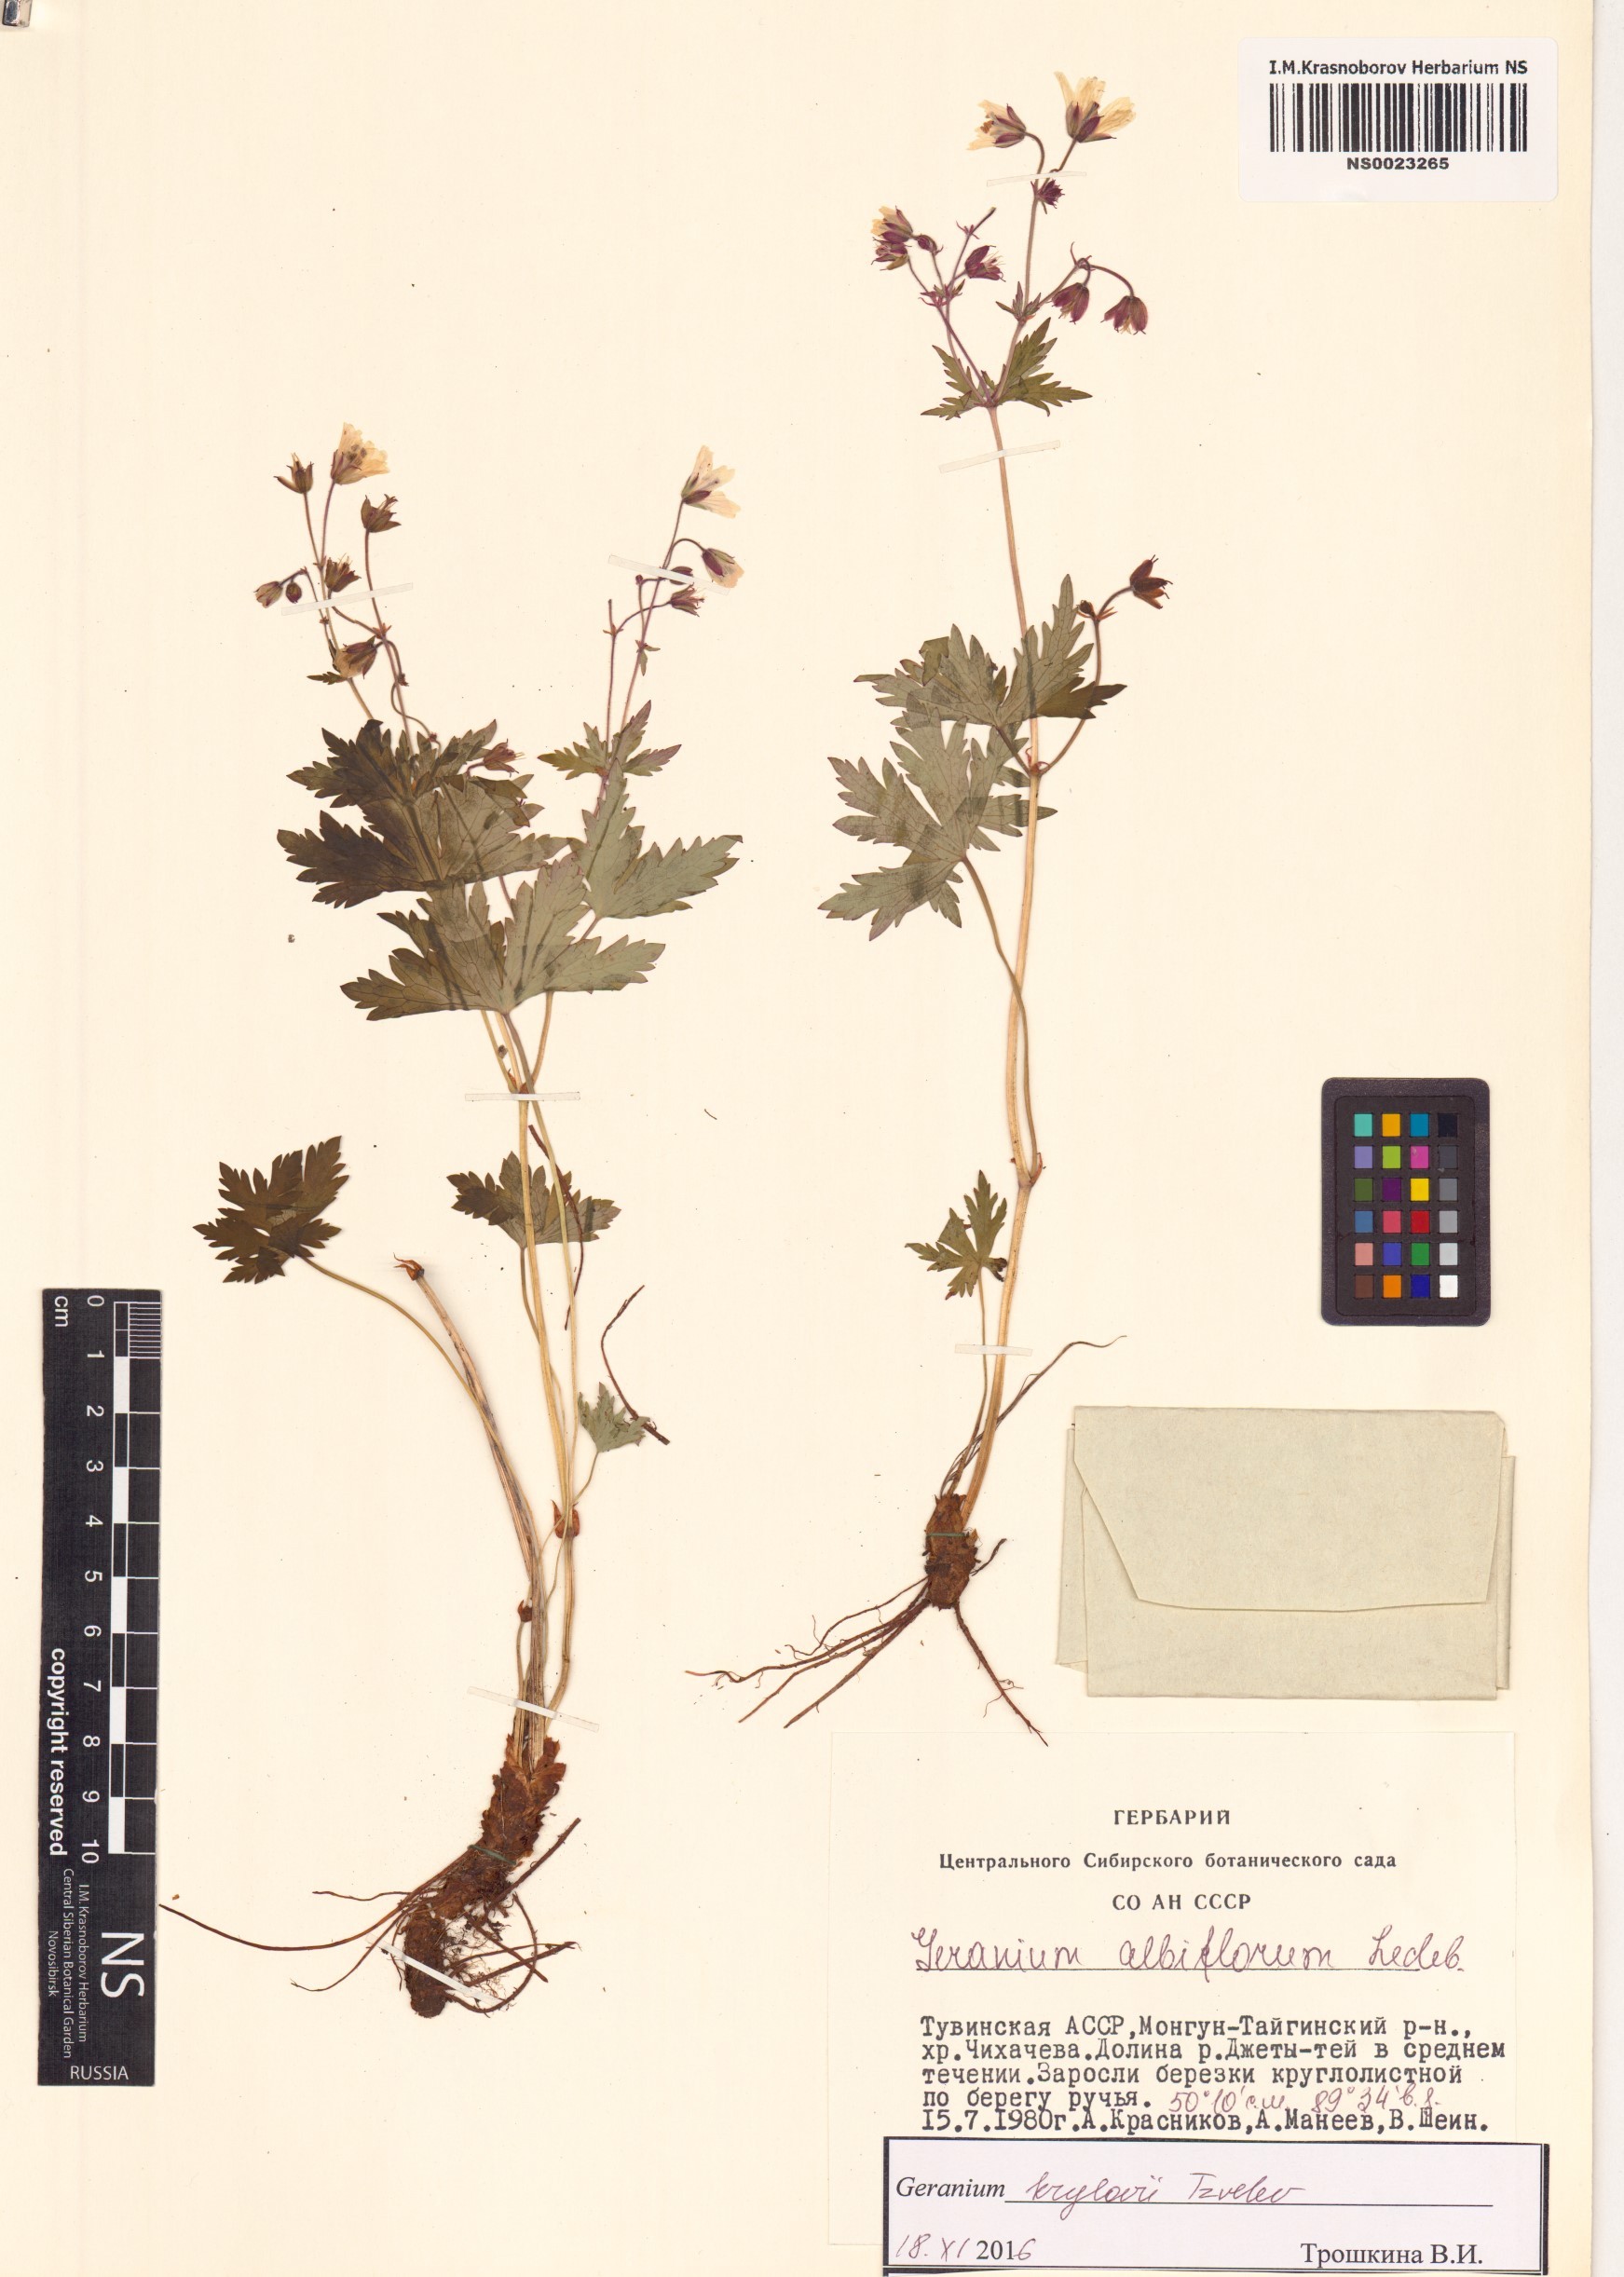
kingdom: Plantae
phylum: Tracheophyta
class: Magnoliopsida
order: Geraniales
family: Geraniaceae
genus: Geranium
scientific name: Geranium sylvaticum
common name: Wood crane's-bill
